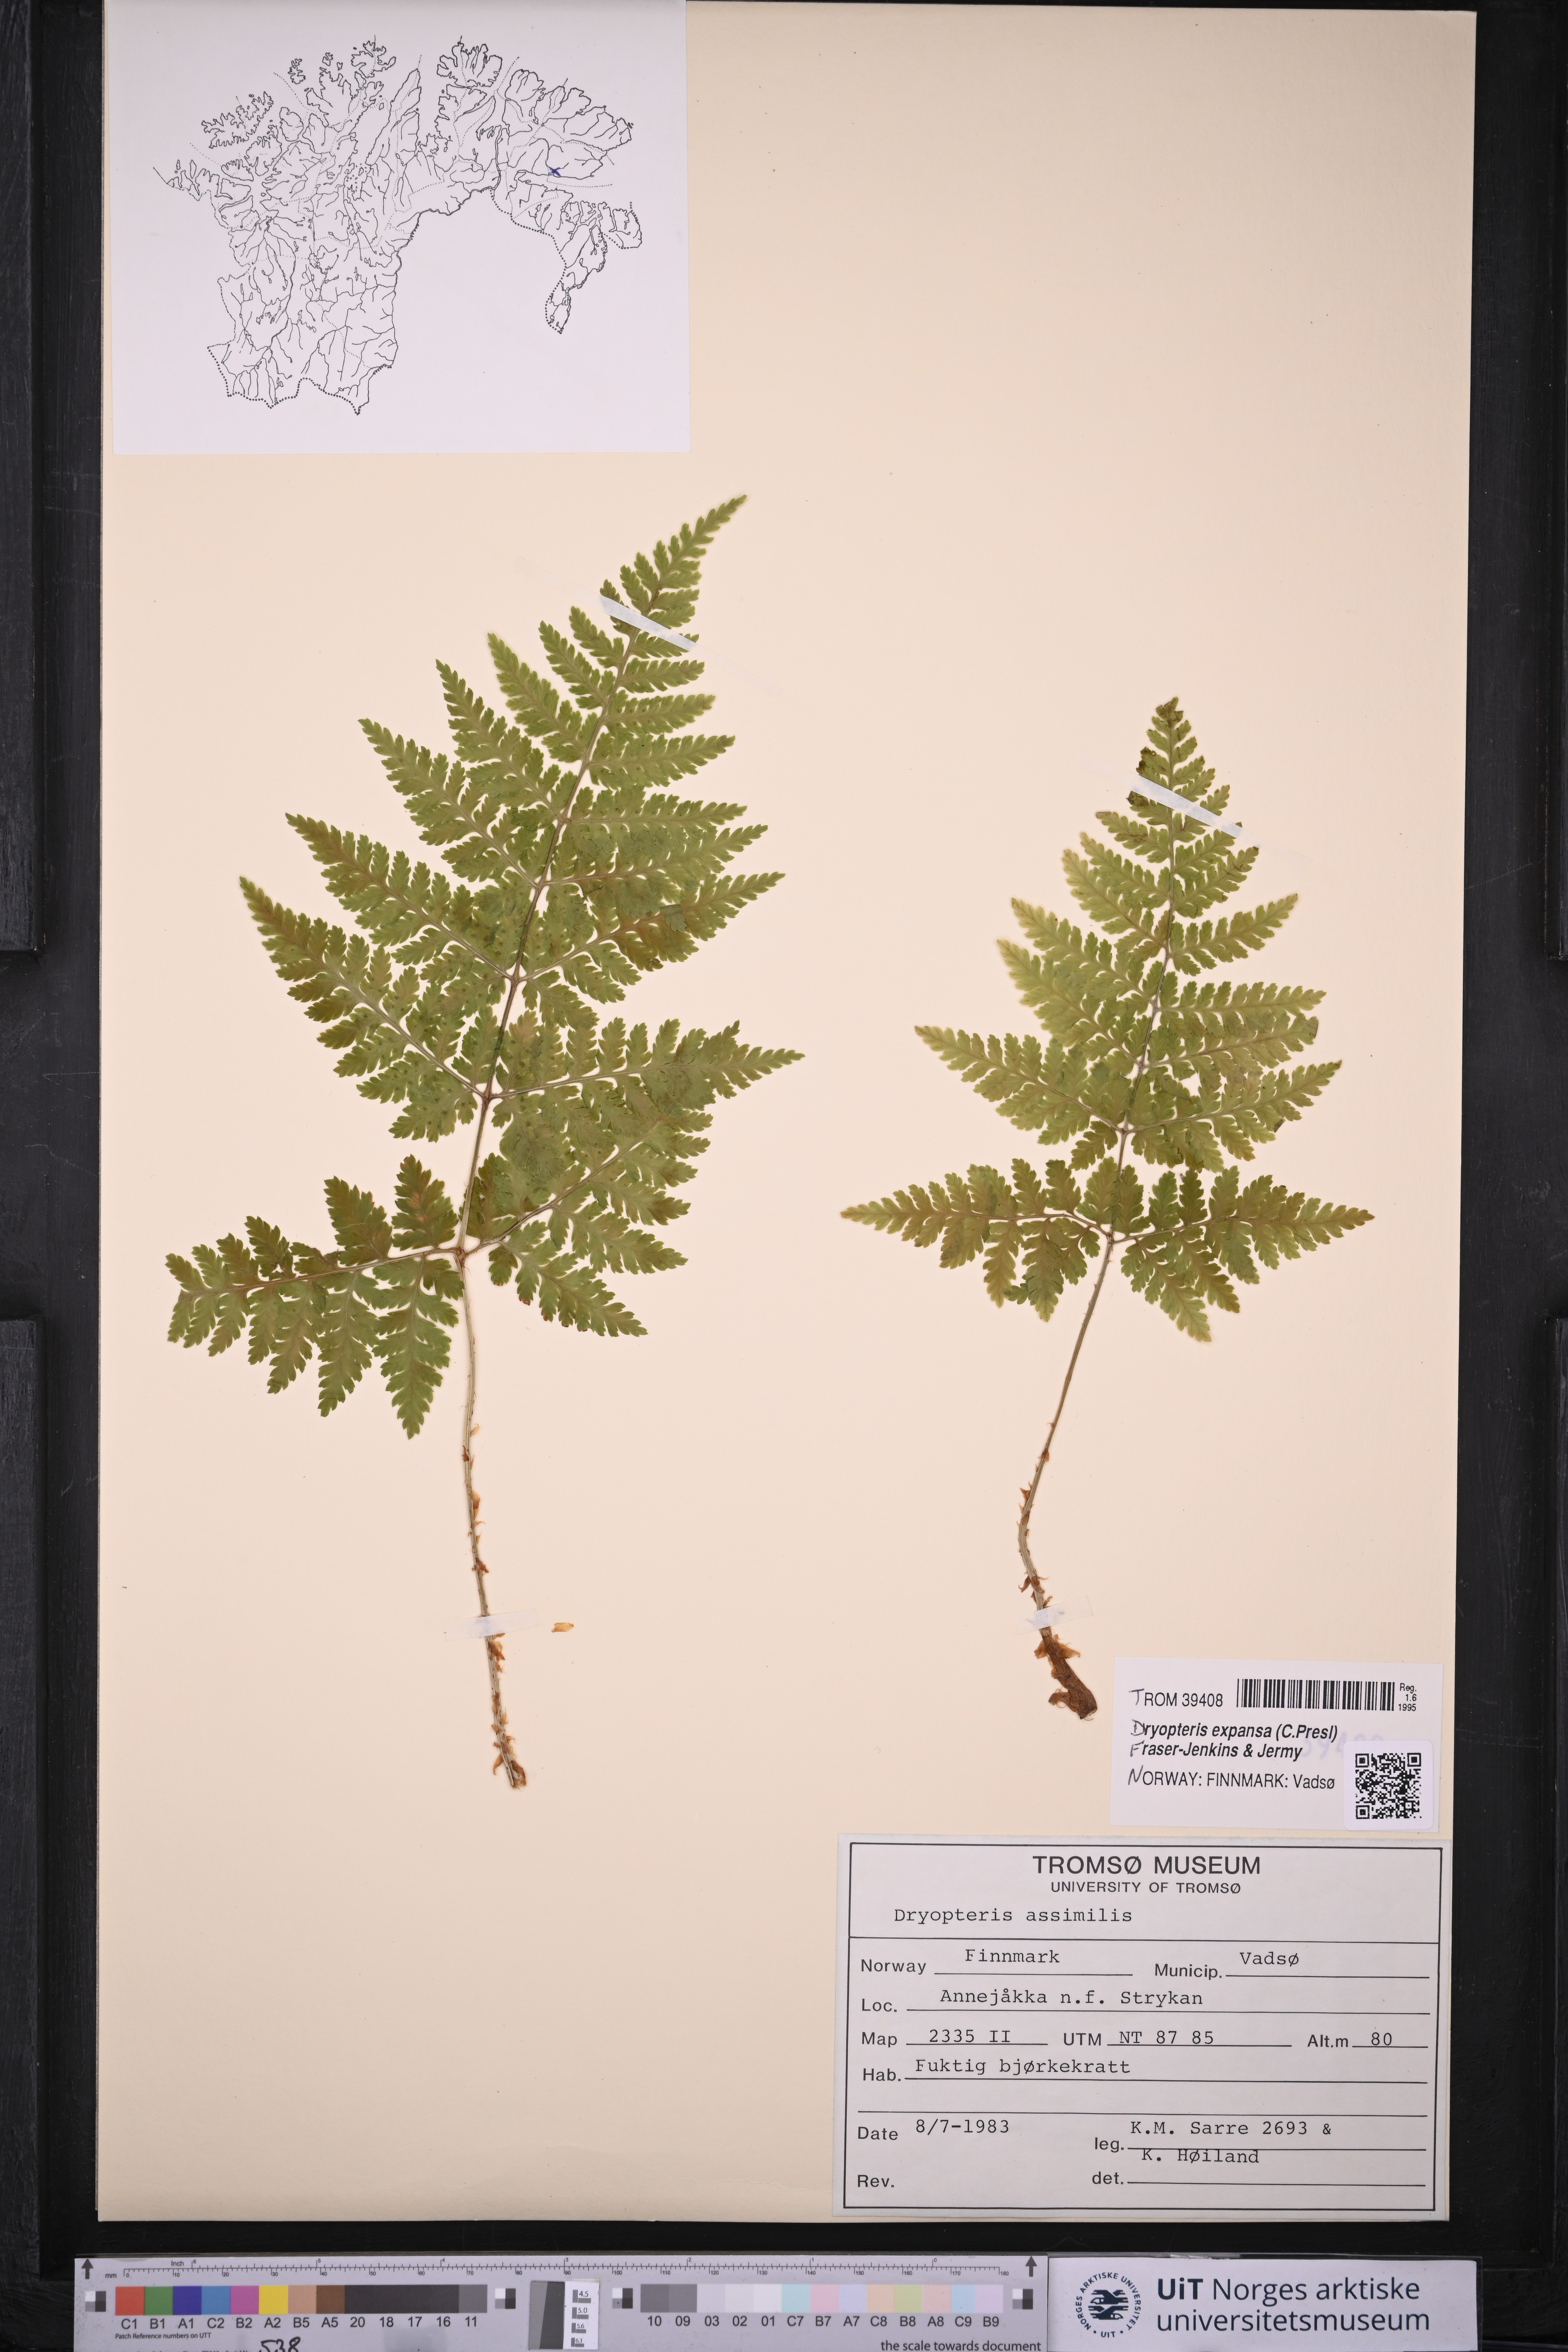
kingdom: Plantae
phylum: Tracheophyta
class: Polypodiopsida
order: Polypodiales
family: Dryopteridaceae
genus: Dryopteris
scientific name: Dryopteris expansa
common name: Northern buckler fern
